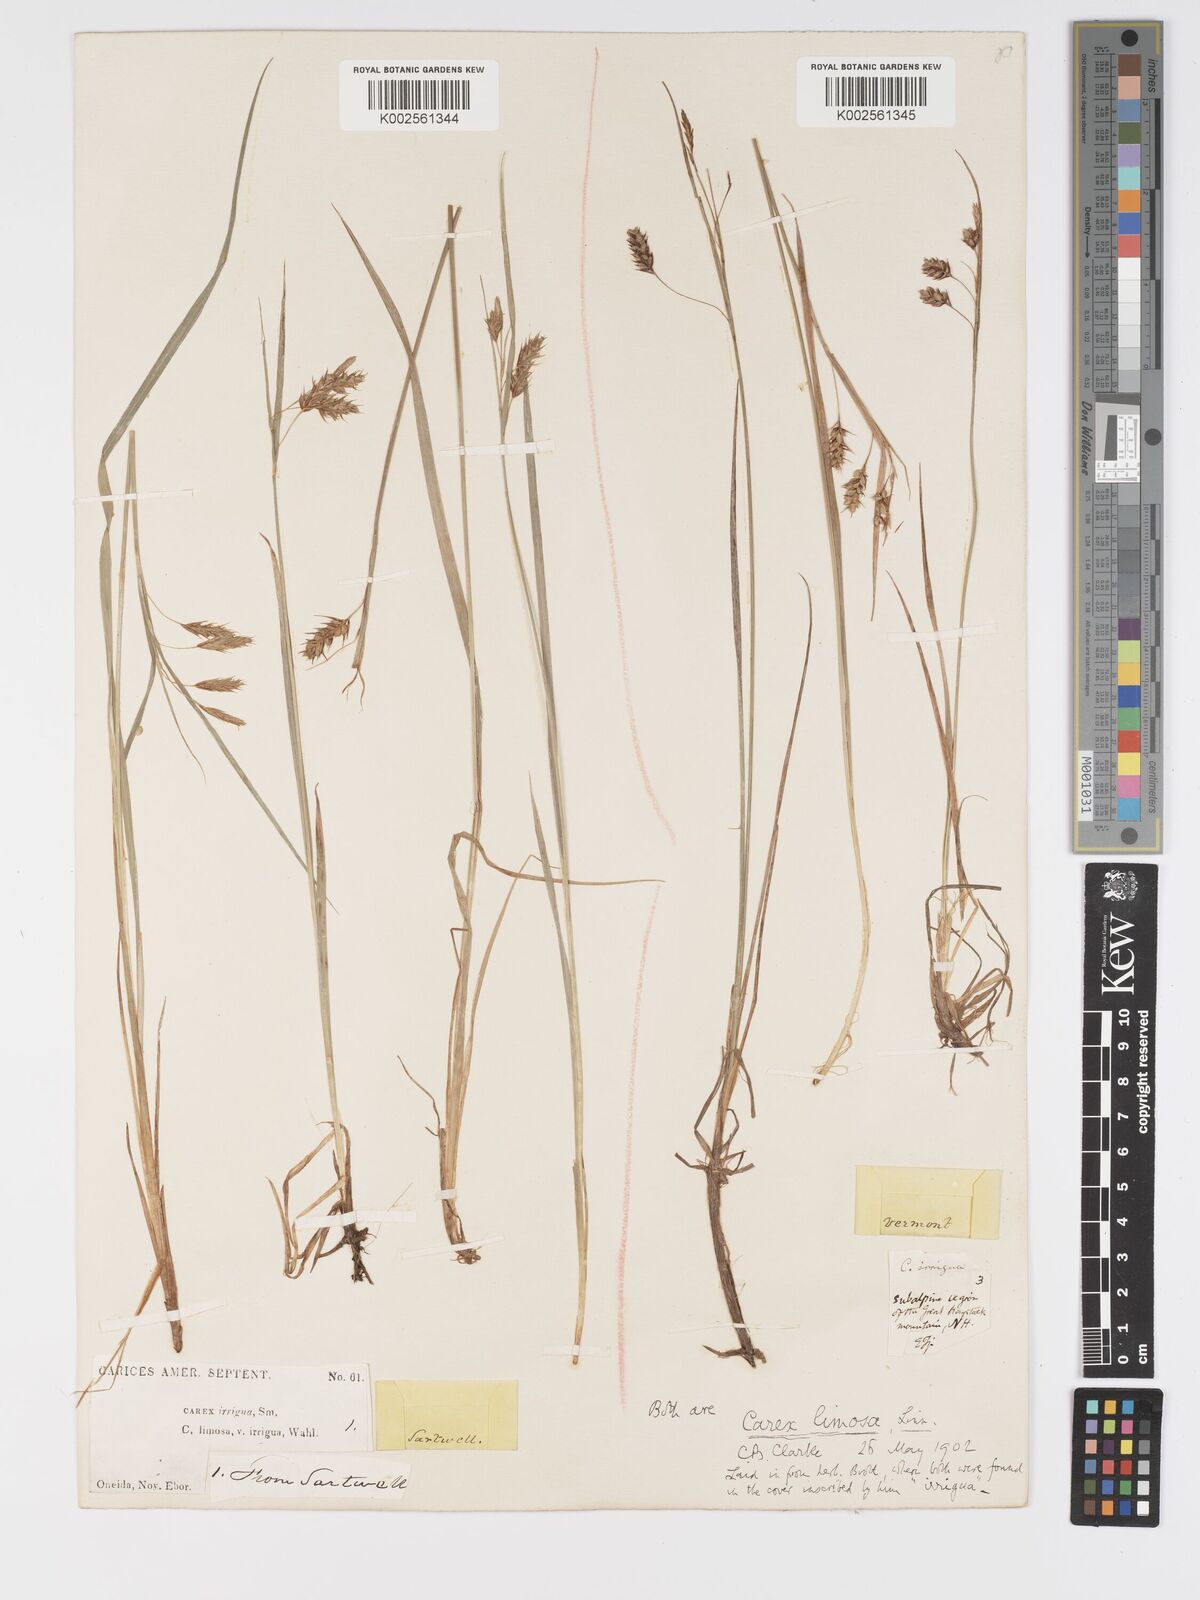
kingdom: Plantae
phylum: Tracheophyta
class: Liliopsida
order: Poales
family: Cyperaceae
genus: Carex
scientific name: Carex magellanica
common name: Bog sedge
